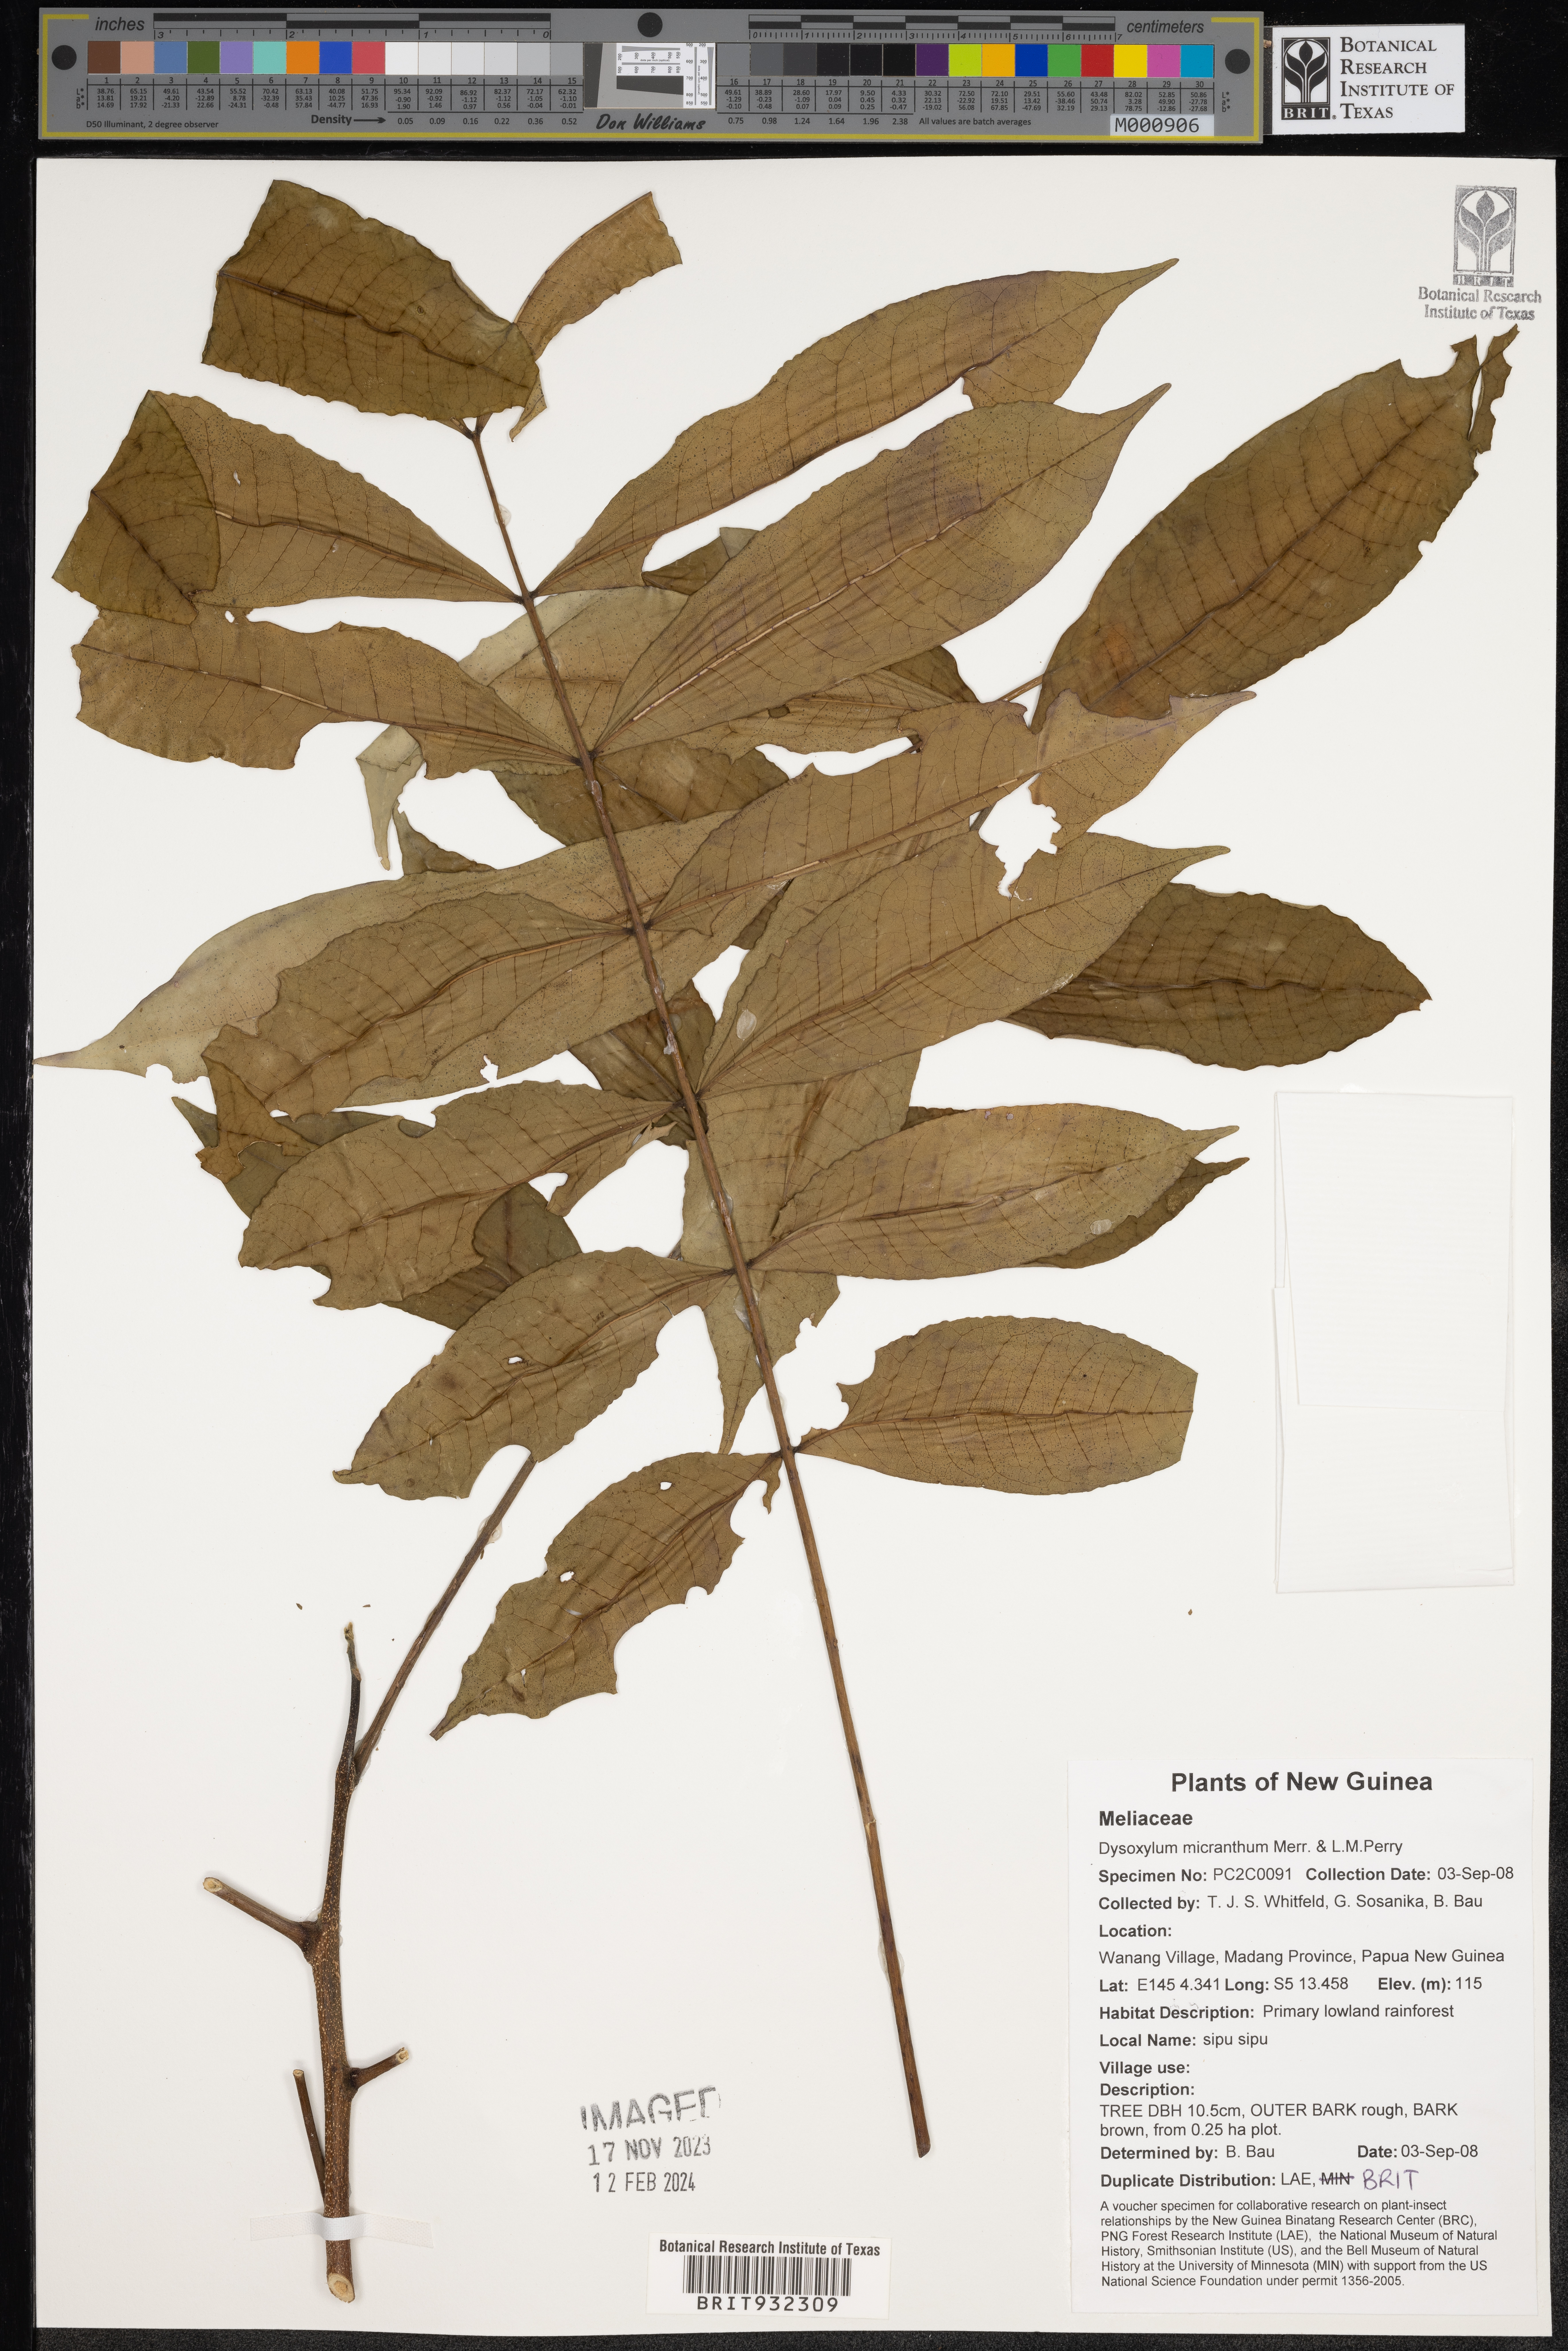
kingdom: Plantae
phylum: Tracheophyta
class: Magnoliopsida
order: Sapindales
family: Meliaceae
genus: Dysoxylum
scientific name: Dysoxylum
